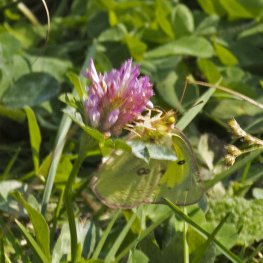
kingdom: Animalia
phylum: Arthropoda
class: Insecta
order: Lepidoptera
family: Pieridae
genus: Colias
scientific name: Colias philodice
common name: Clouded Sulphur
